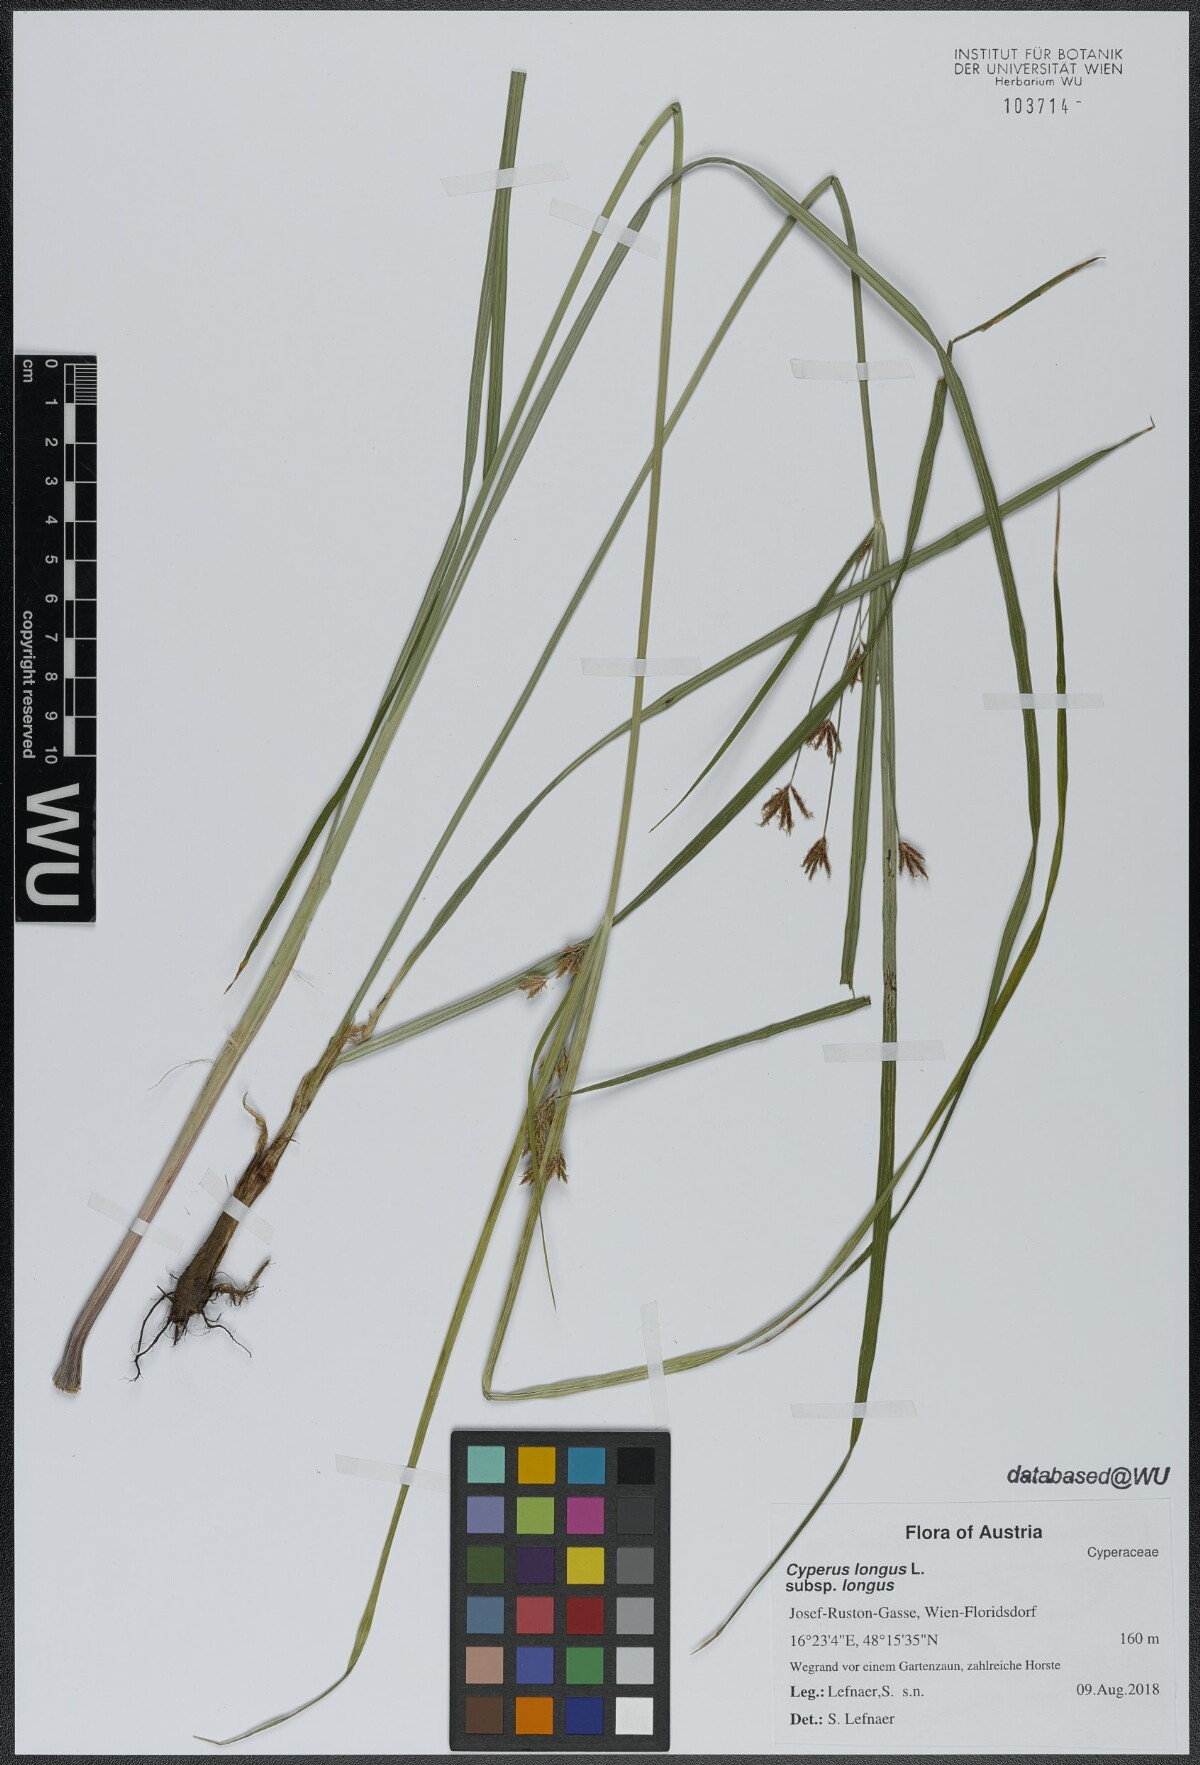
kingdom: Plantae
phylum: Tracheophyta
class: Liliopsida
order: Poales
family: Cyperaceae
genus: Cyperus
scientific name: Cyperus longus
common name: Galingale
